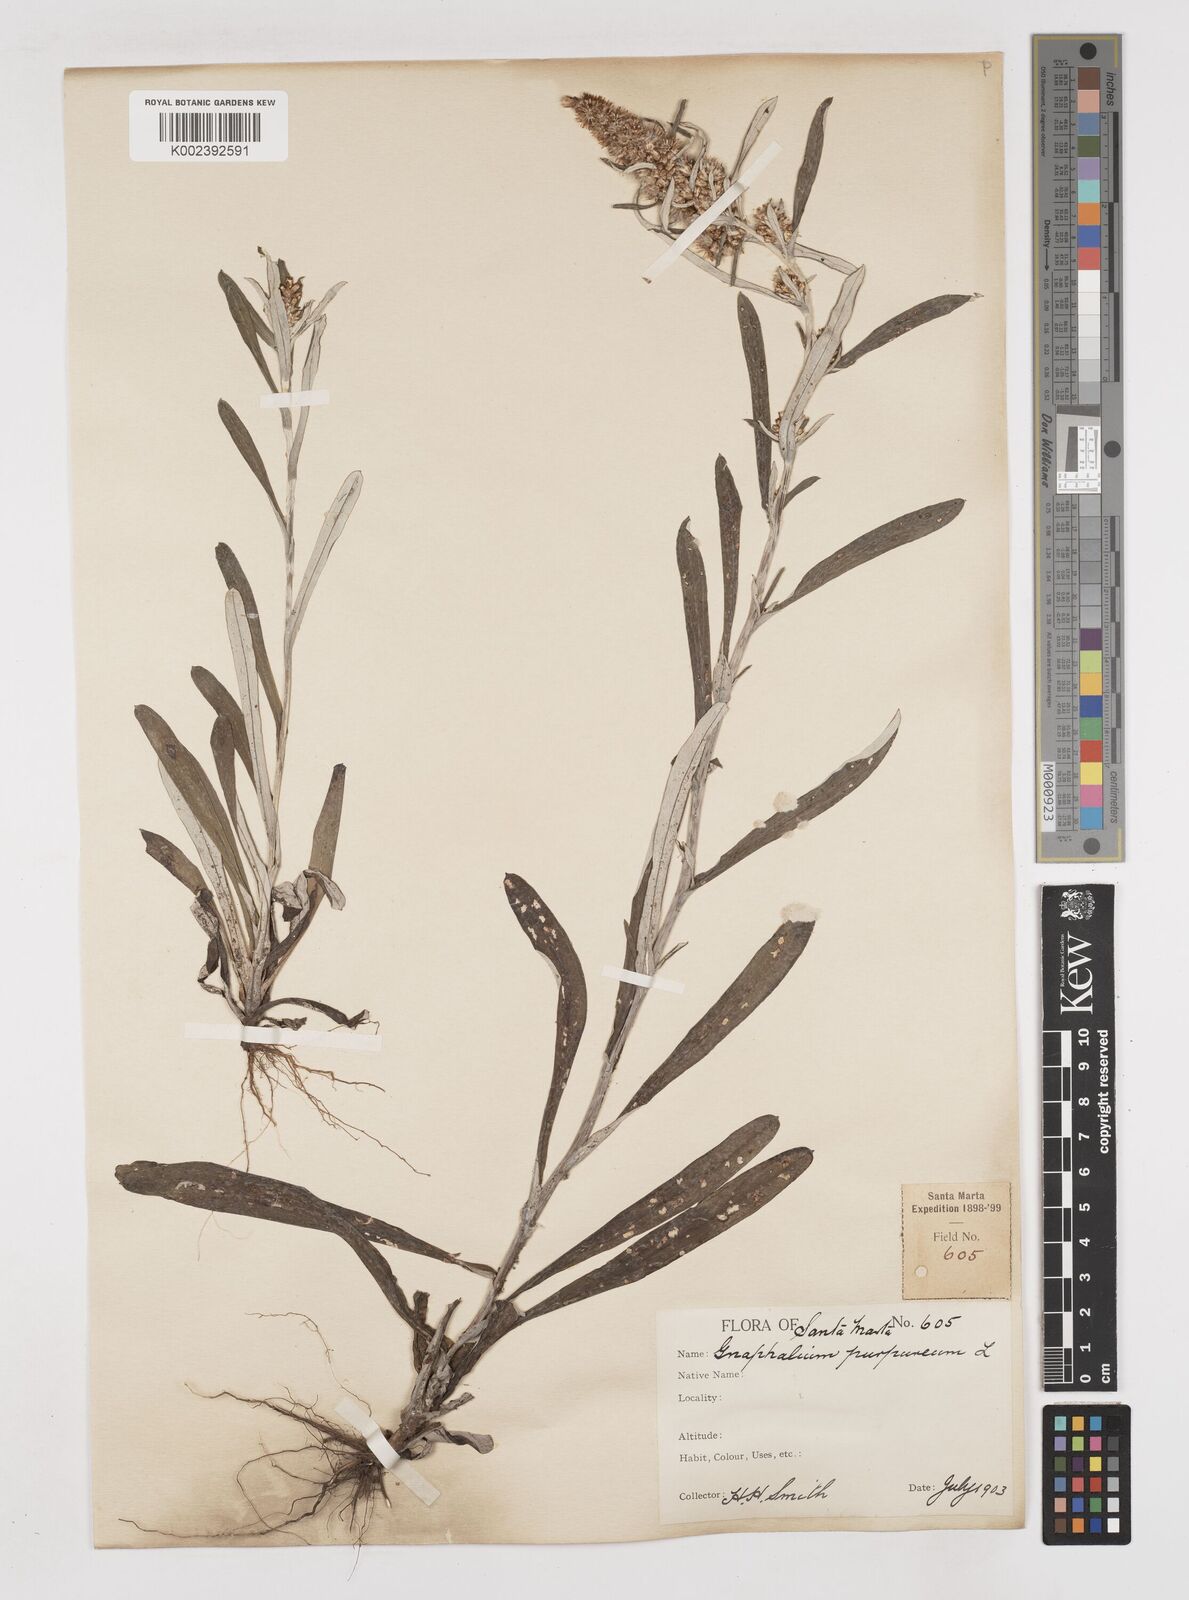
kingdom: Plantae
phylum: Tracheophyta
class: Magnoliopsida
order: Asterales
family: Asteraceae
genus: Gamochaeta
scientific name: Gamochaeta americana
